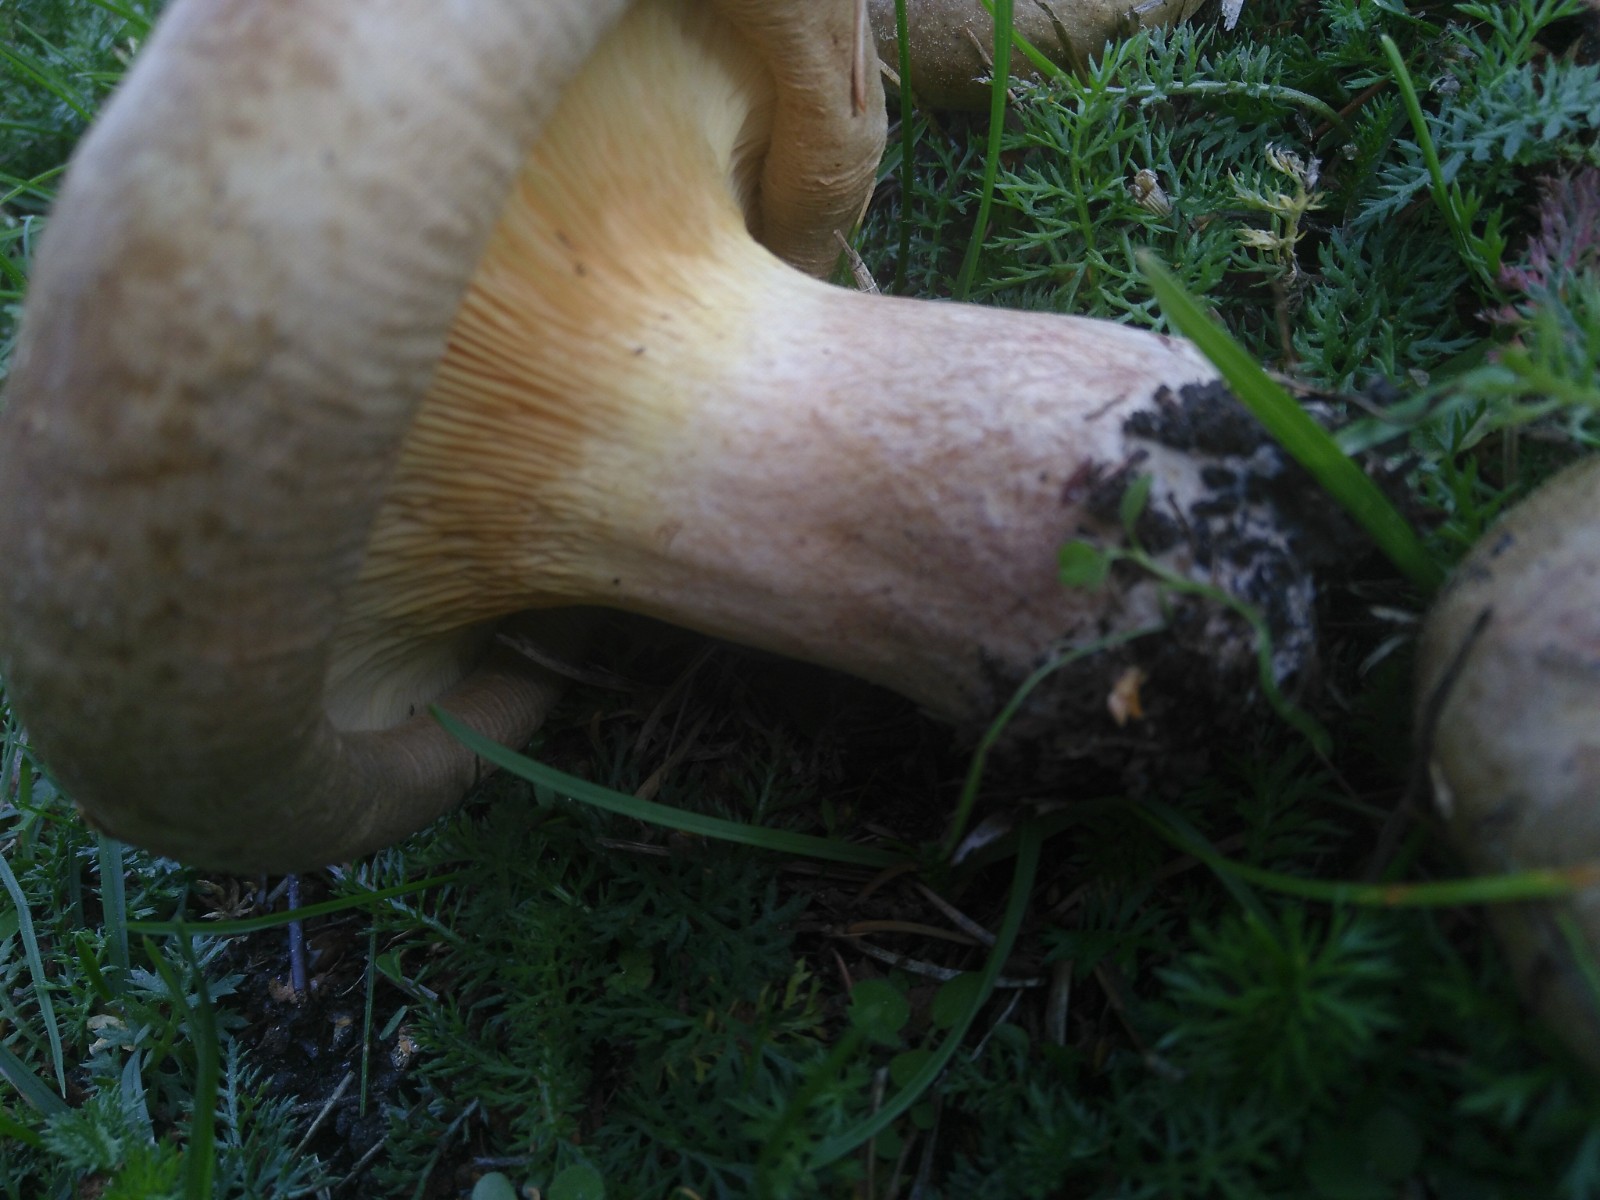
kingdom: Fungi
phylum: Basidiomycota
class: Agaricomycetes
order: Boletales
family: Paxillaceae
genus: Paxillus
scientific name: Paxillus
